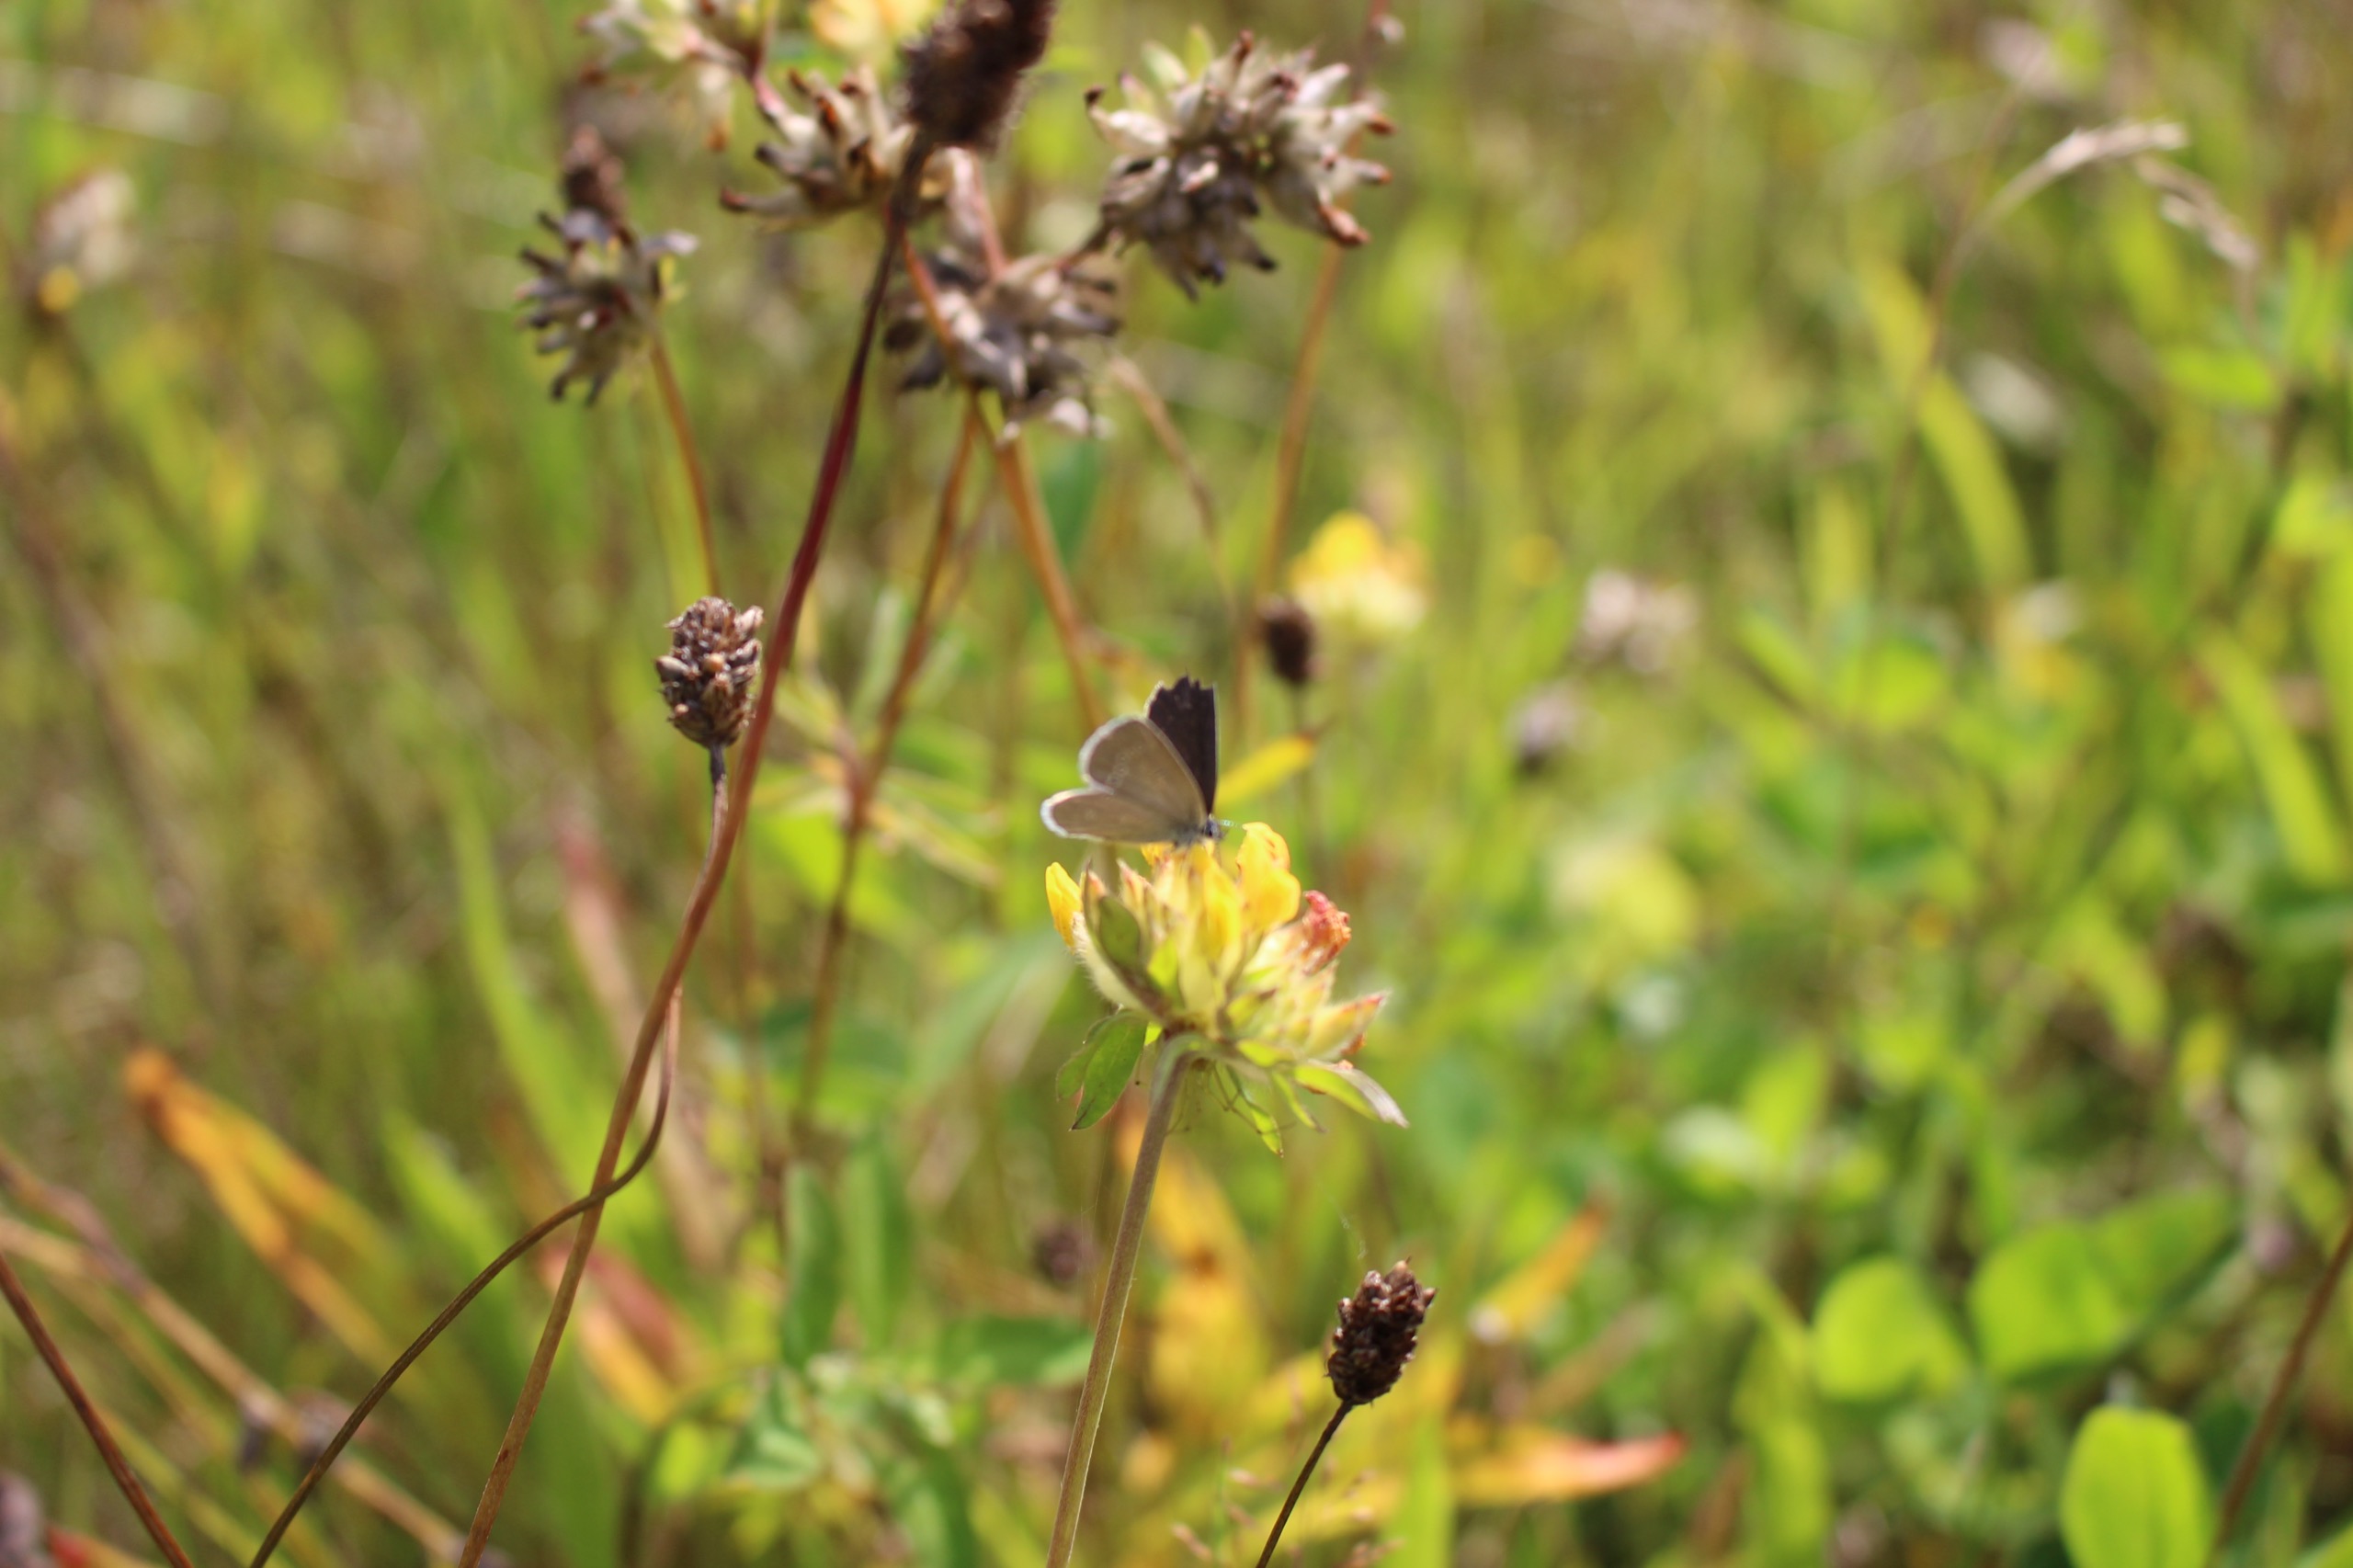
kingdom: Animalia
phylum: Arthropoda
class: Insecta
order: Lepidoptera
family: Lycaenidae
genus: Cupido
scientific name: Cupido minimus
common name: Dværgblåfugl
